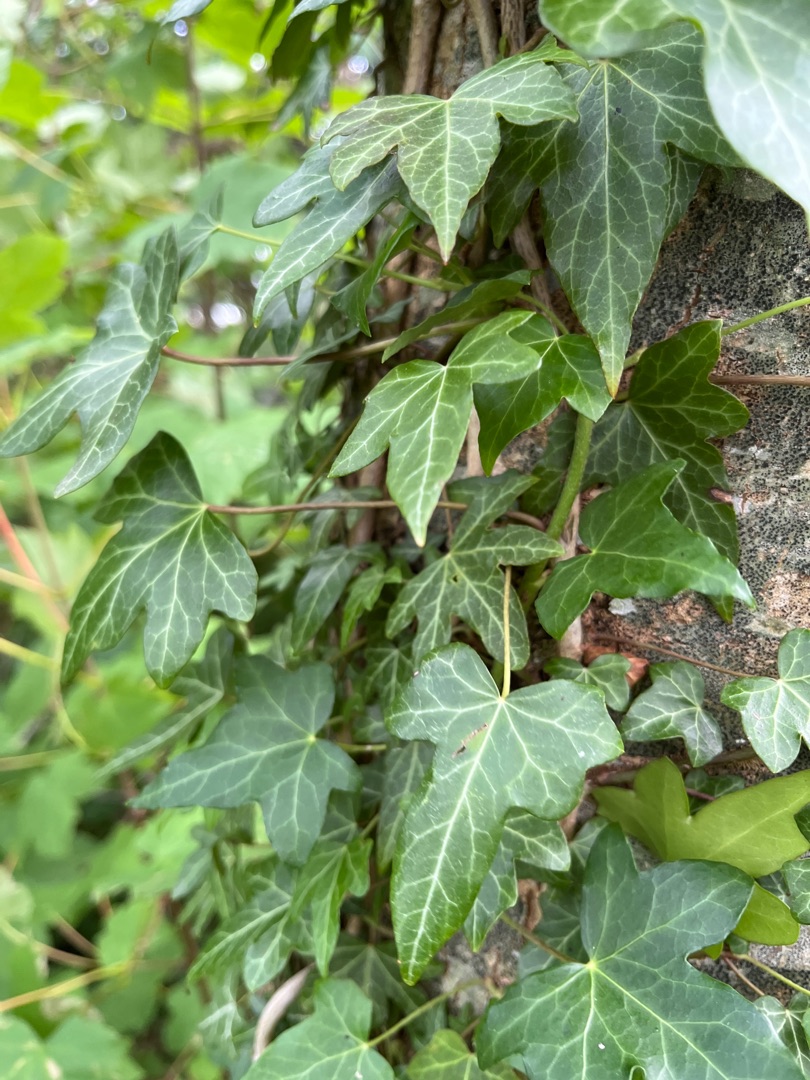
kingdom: Plantae
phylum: Tracheophyta
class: Magnoliopsida
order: Apiales
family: Araliaceae
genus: Hedera
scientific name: Hedera helix
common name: Vedbend
